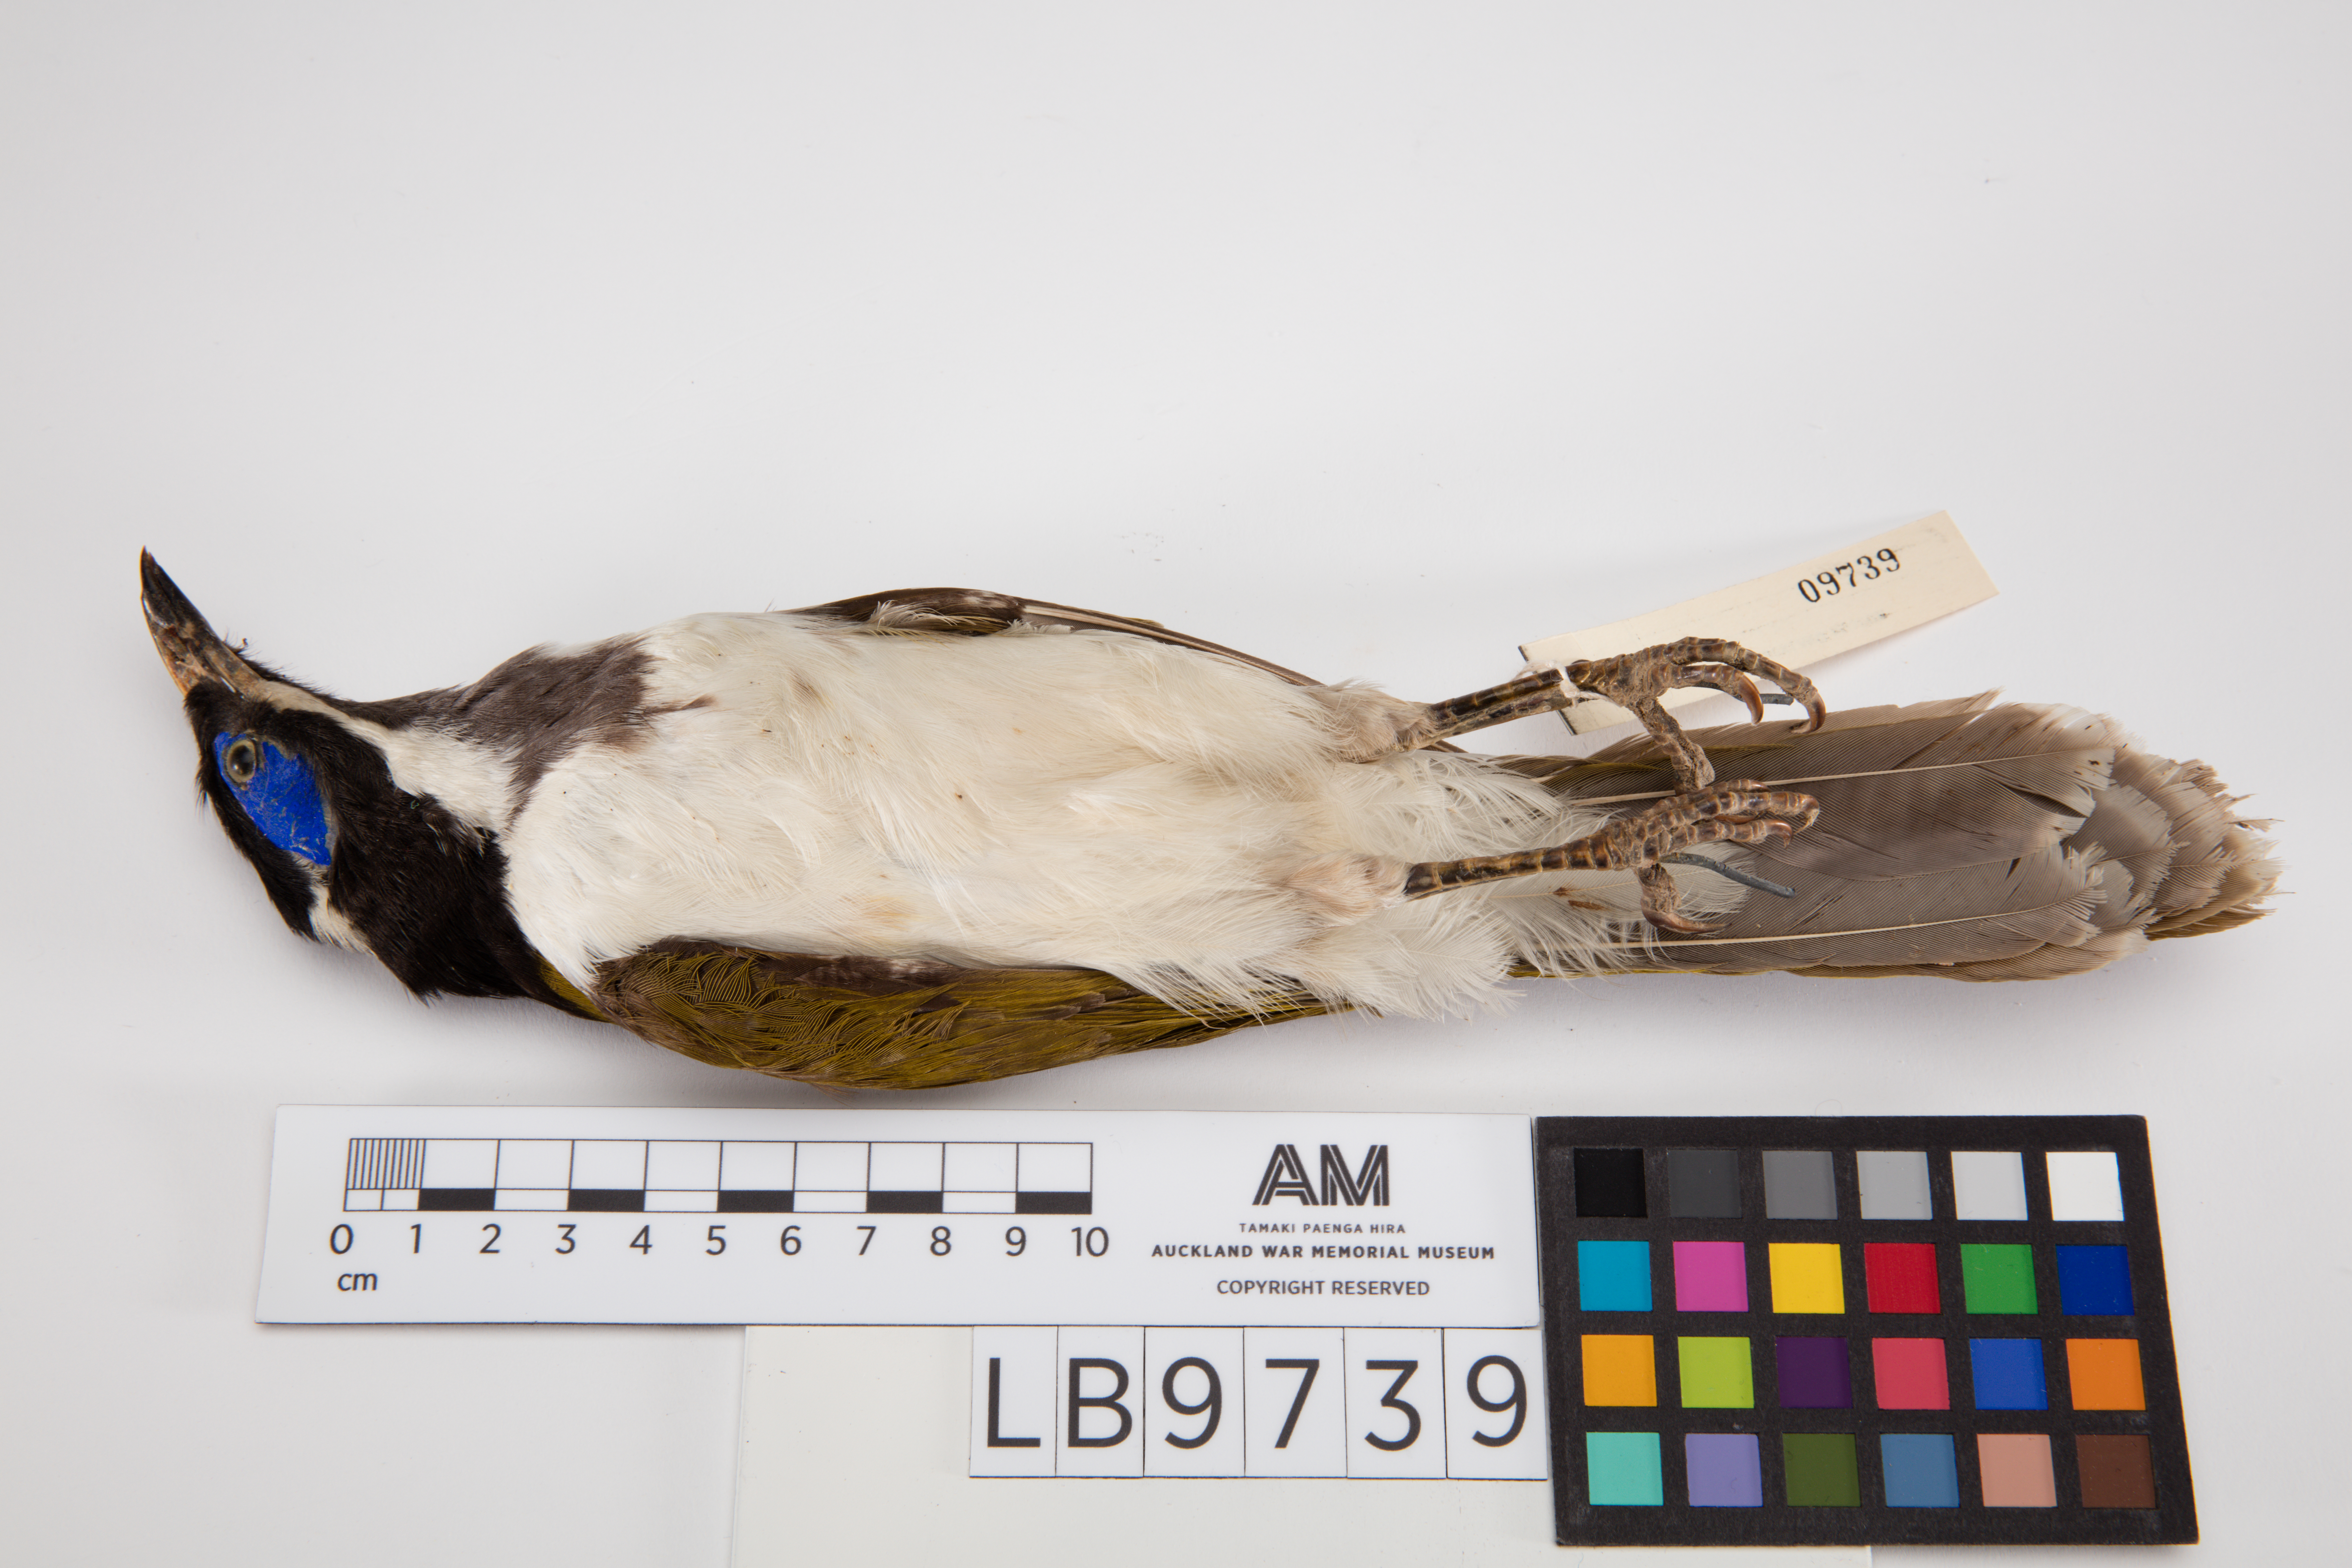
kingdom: Animalia
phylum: Chordata
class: Aves
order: Passeriformes
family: Meliphagidae
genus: Entomyzon
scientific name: Entomyzon cyanotis
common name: Blue-faced honeyeater
